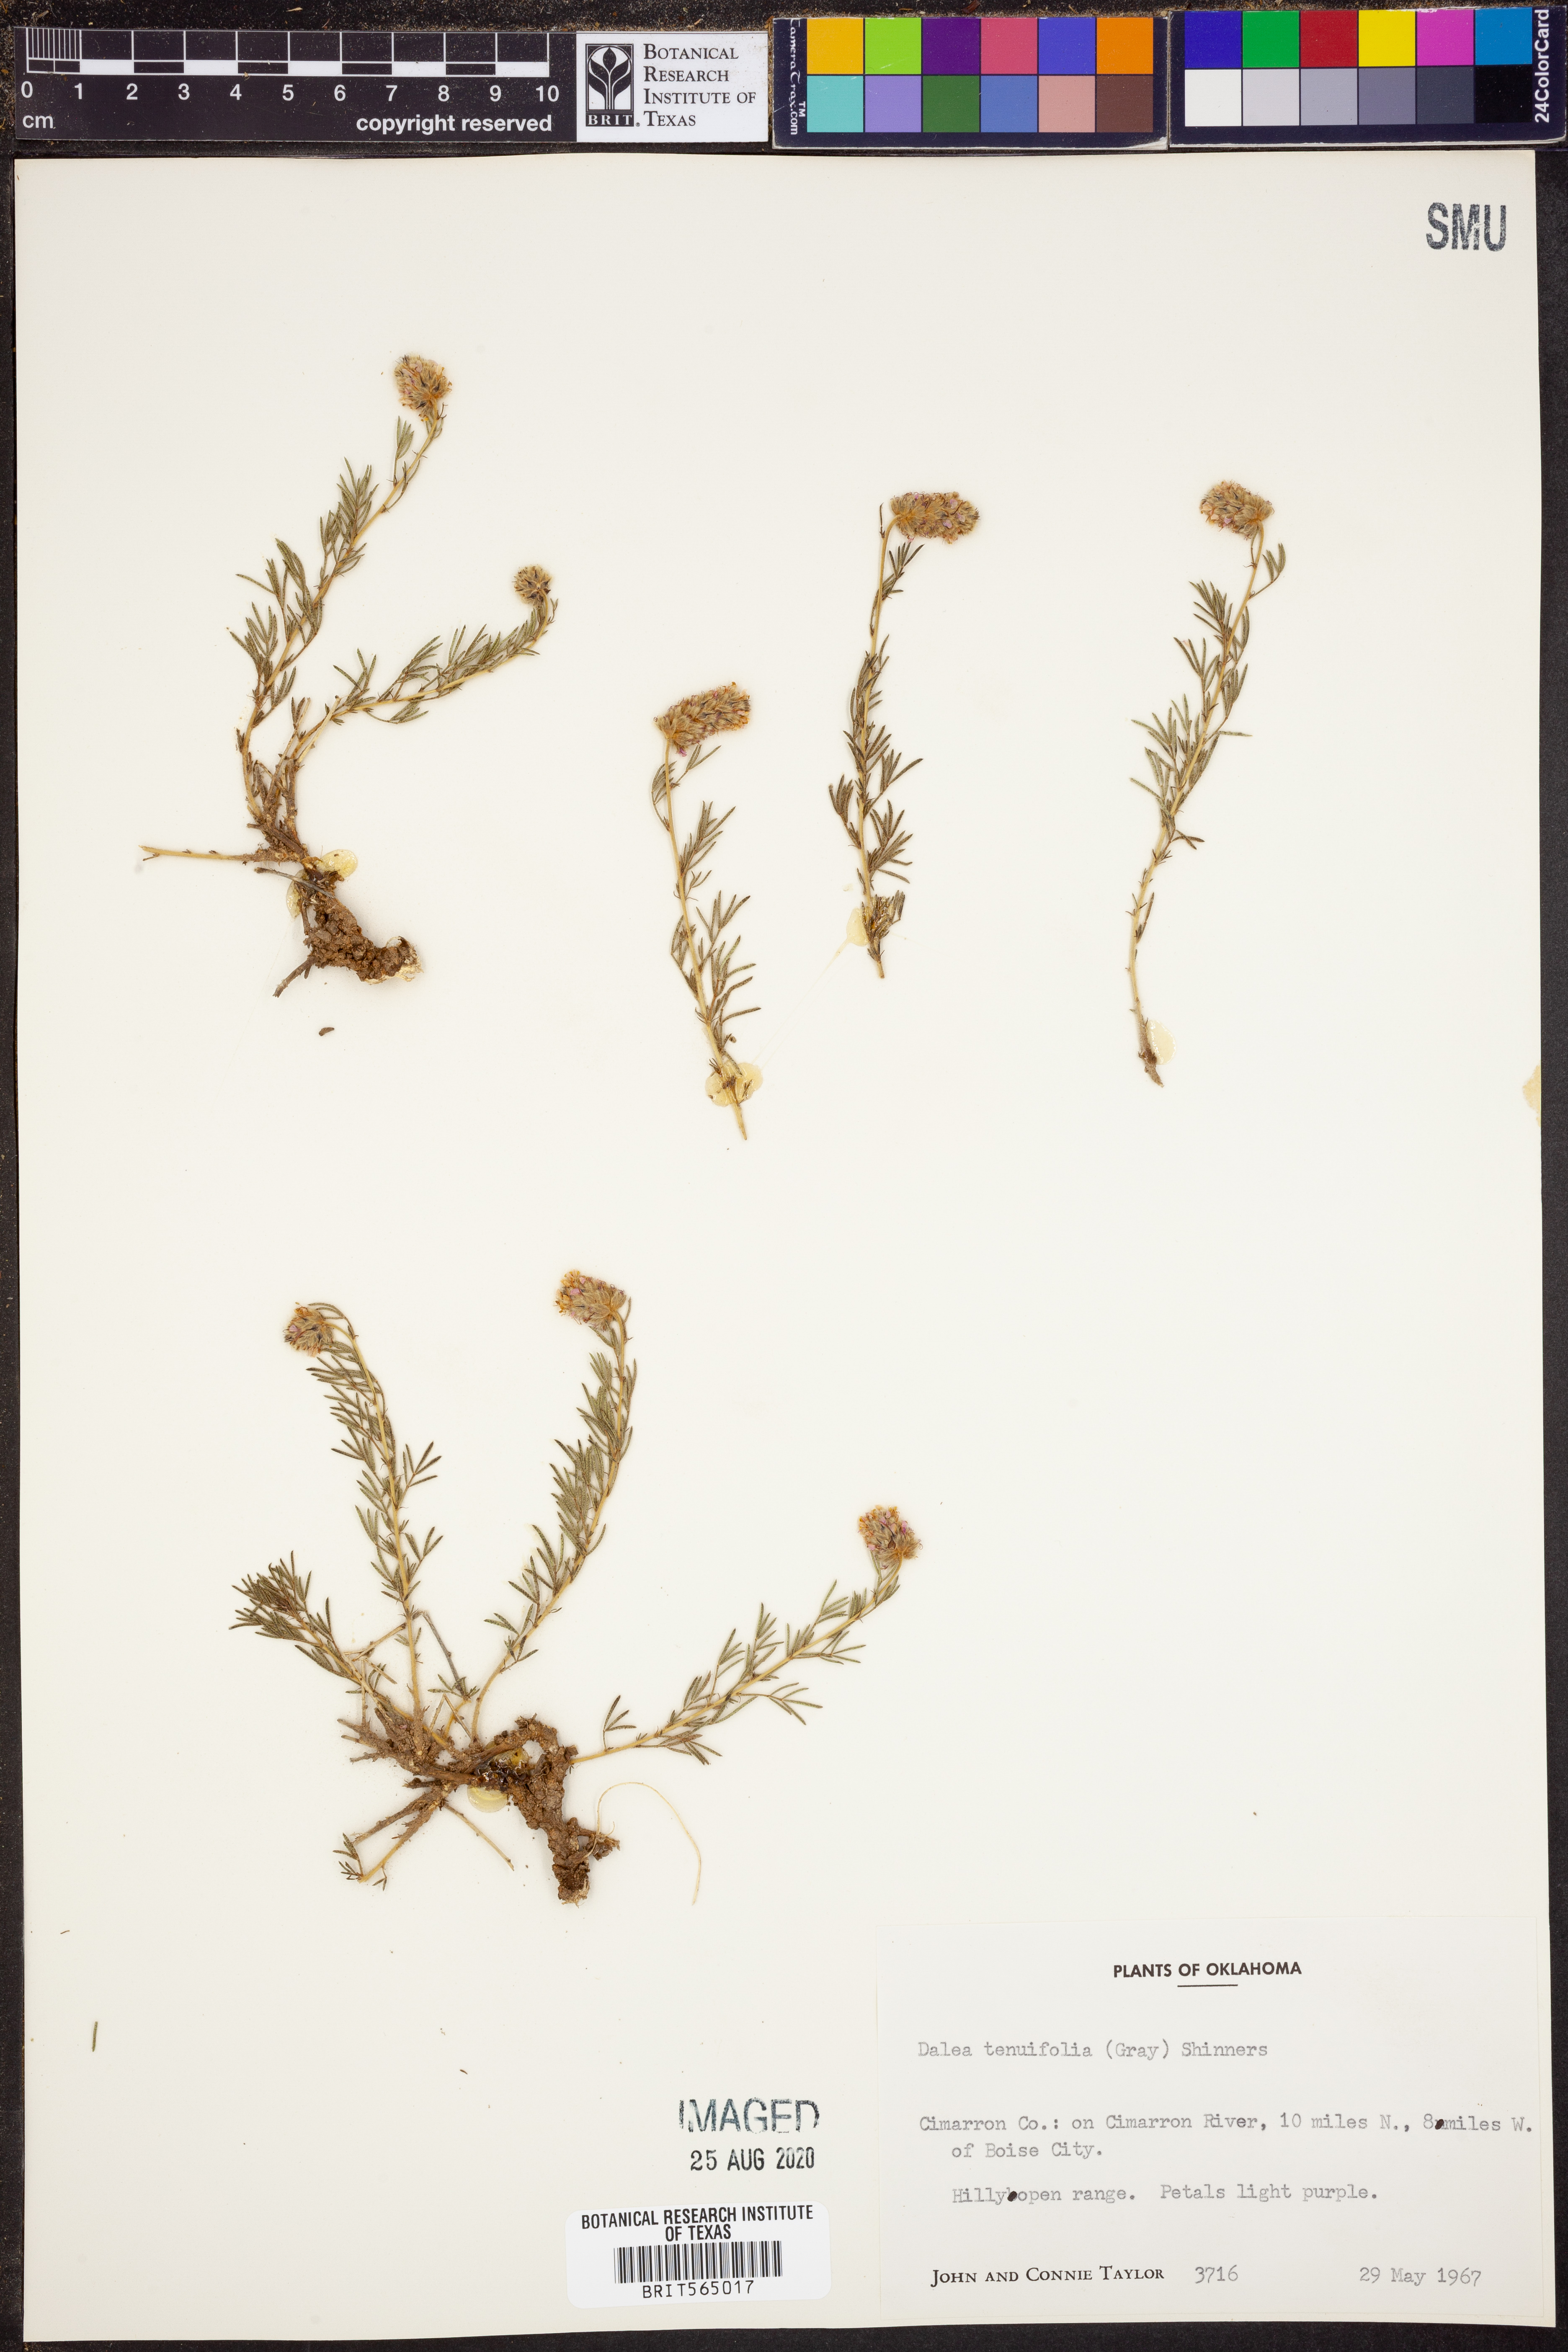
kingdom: Plantae
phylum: Tracheophyta
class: Magnoliopsida
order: Fabales
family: Fabaceae
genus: Dalea
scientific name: Dalea tenuifolia
